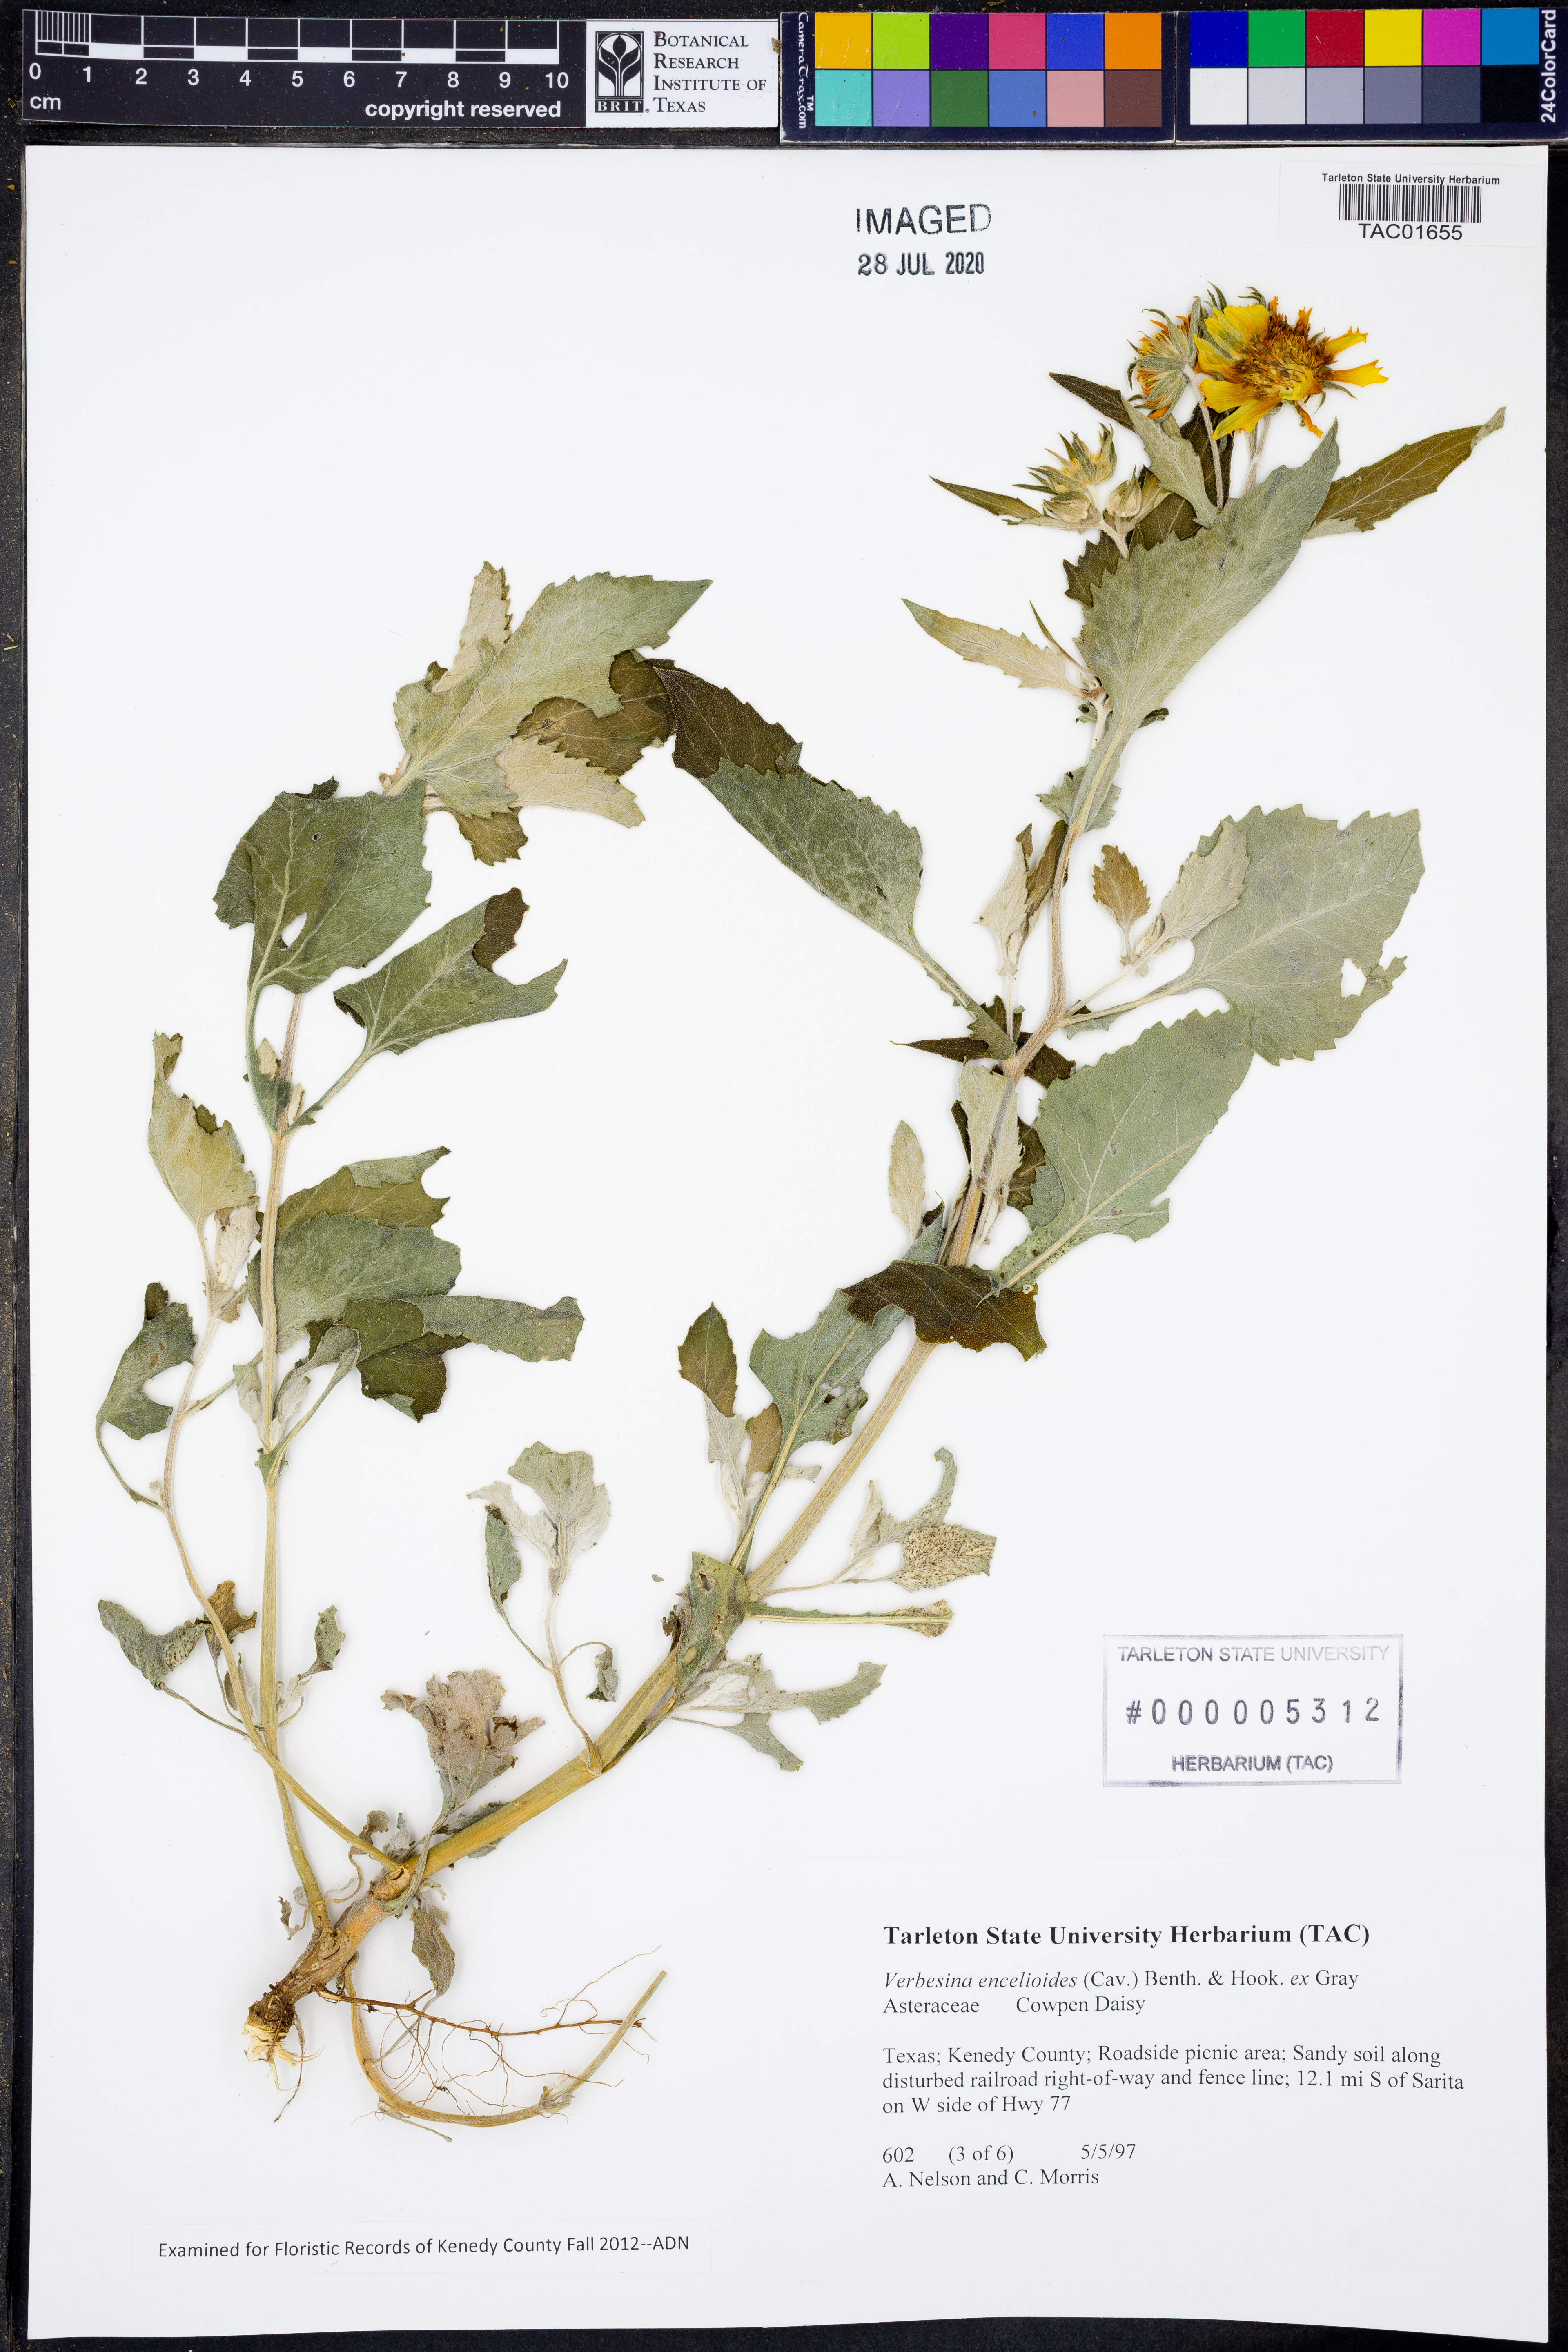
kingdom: Plantae
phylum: Tracheophyta
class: Magnoliopsida
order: Asterales
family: Asteraceae
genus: Verbesina
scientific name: Verbesina encelioides
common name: Golden crownbeard
